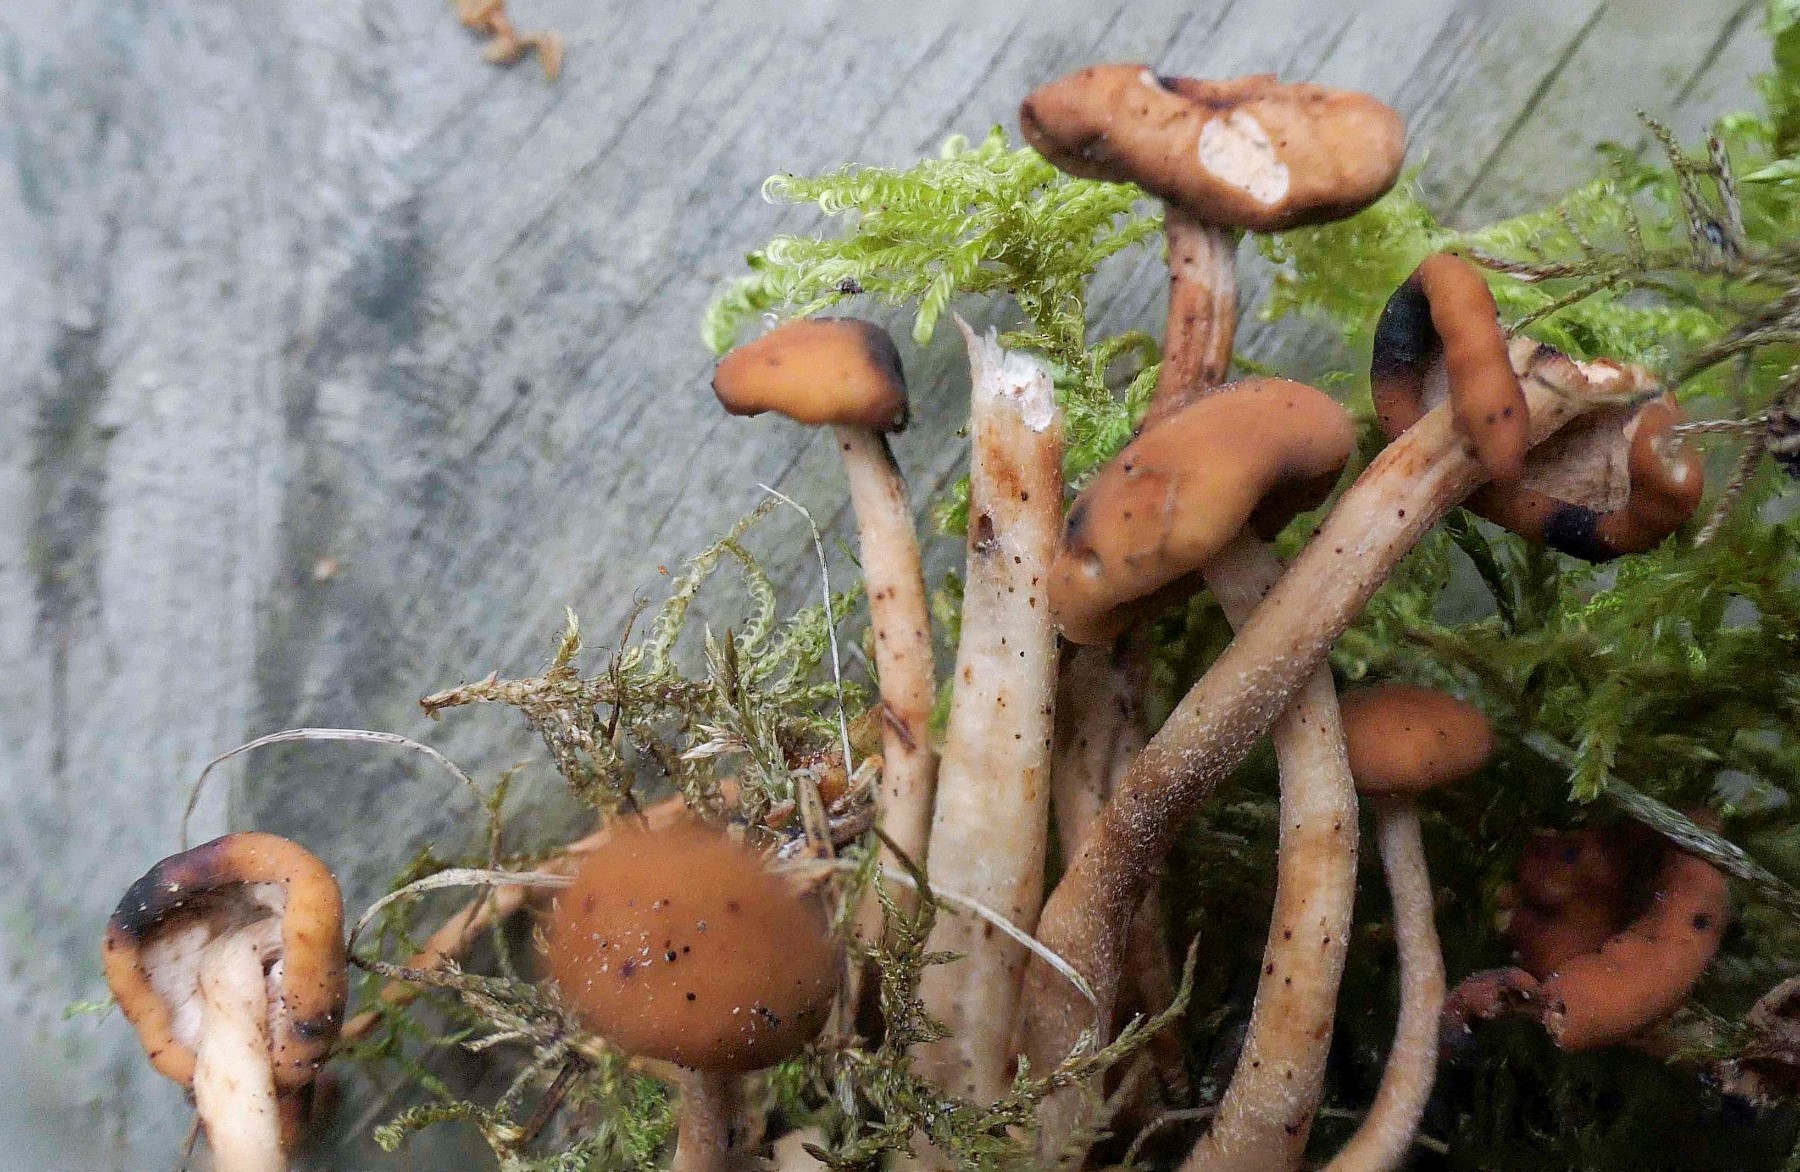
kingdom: Fungi
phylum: Ascomycota
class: Leotiomycetes
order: Rhytismatales
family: Cudoniaceae
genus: Cudonia
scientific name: Cudonia confusa
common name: ensfarvet hjelmmorkel
